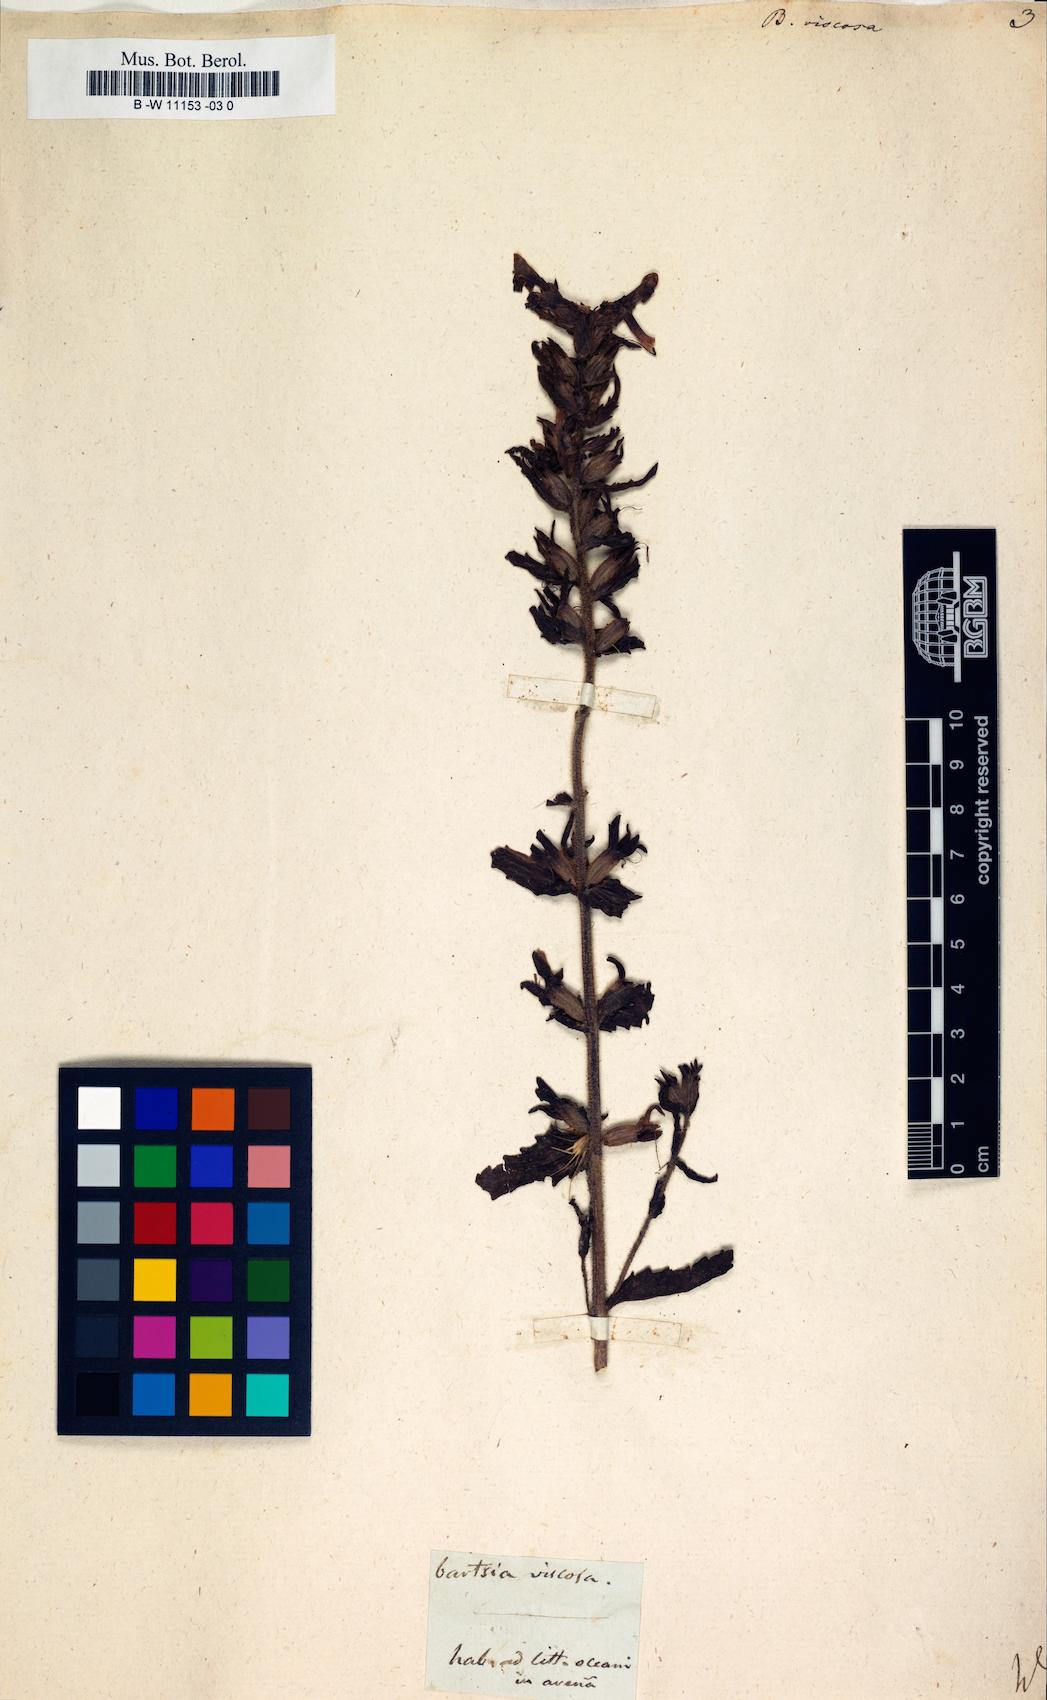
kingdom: Plantae
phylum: Tracheophyta
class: Magnoliopsida
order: Lamiales
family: Orobanchaceae
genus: Bellardia
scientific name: Bellardia viscosa
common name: Sticky parentucellia
